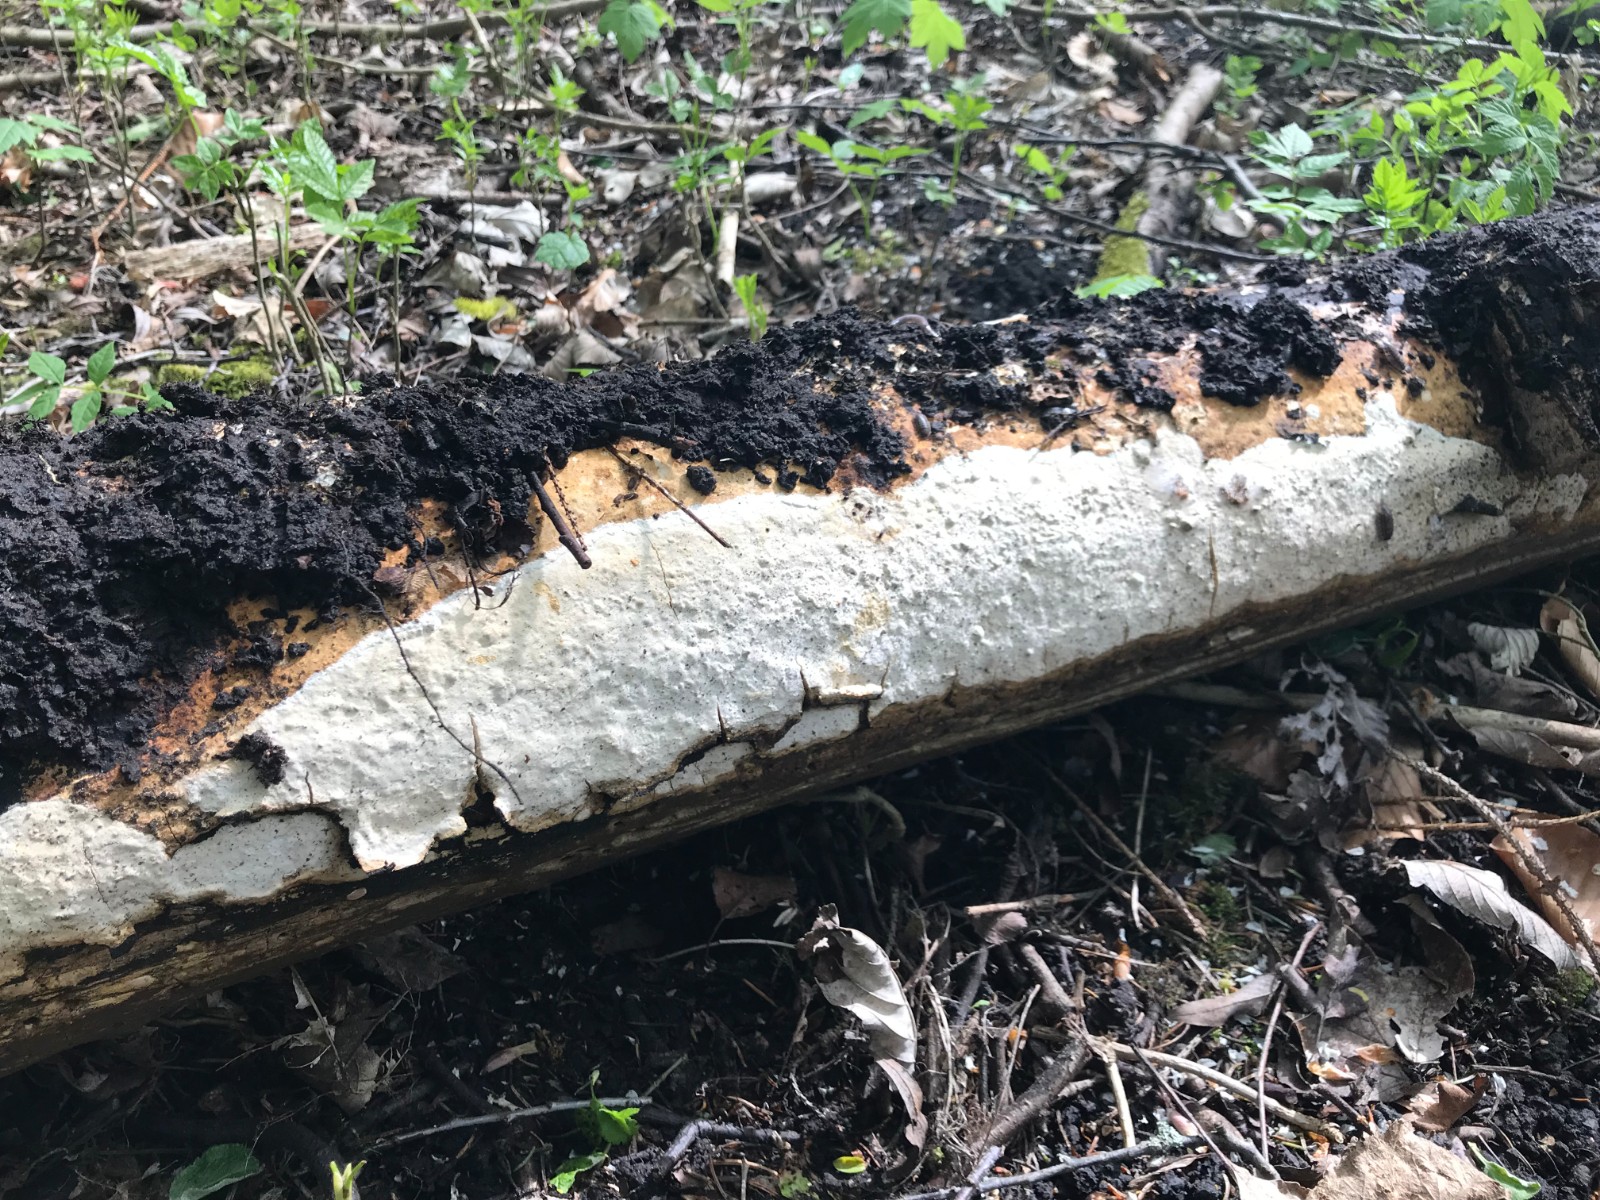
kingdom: Fungi
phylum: Basidiomycota
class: Agaricomycetes
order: Russulales
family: Peniophoraceae
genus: Scytinostroma
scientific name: Scytinostroma hemidichophyticum
